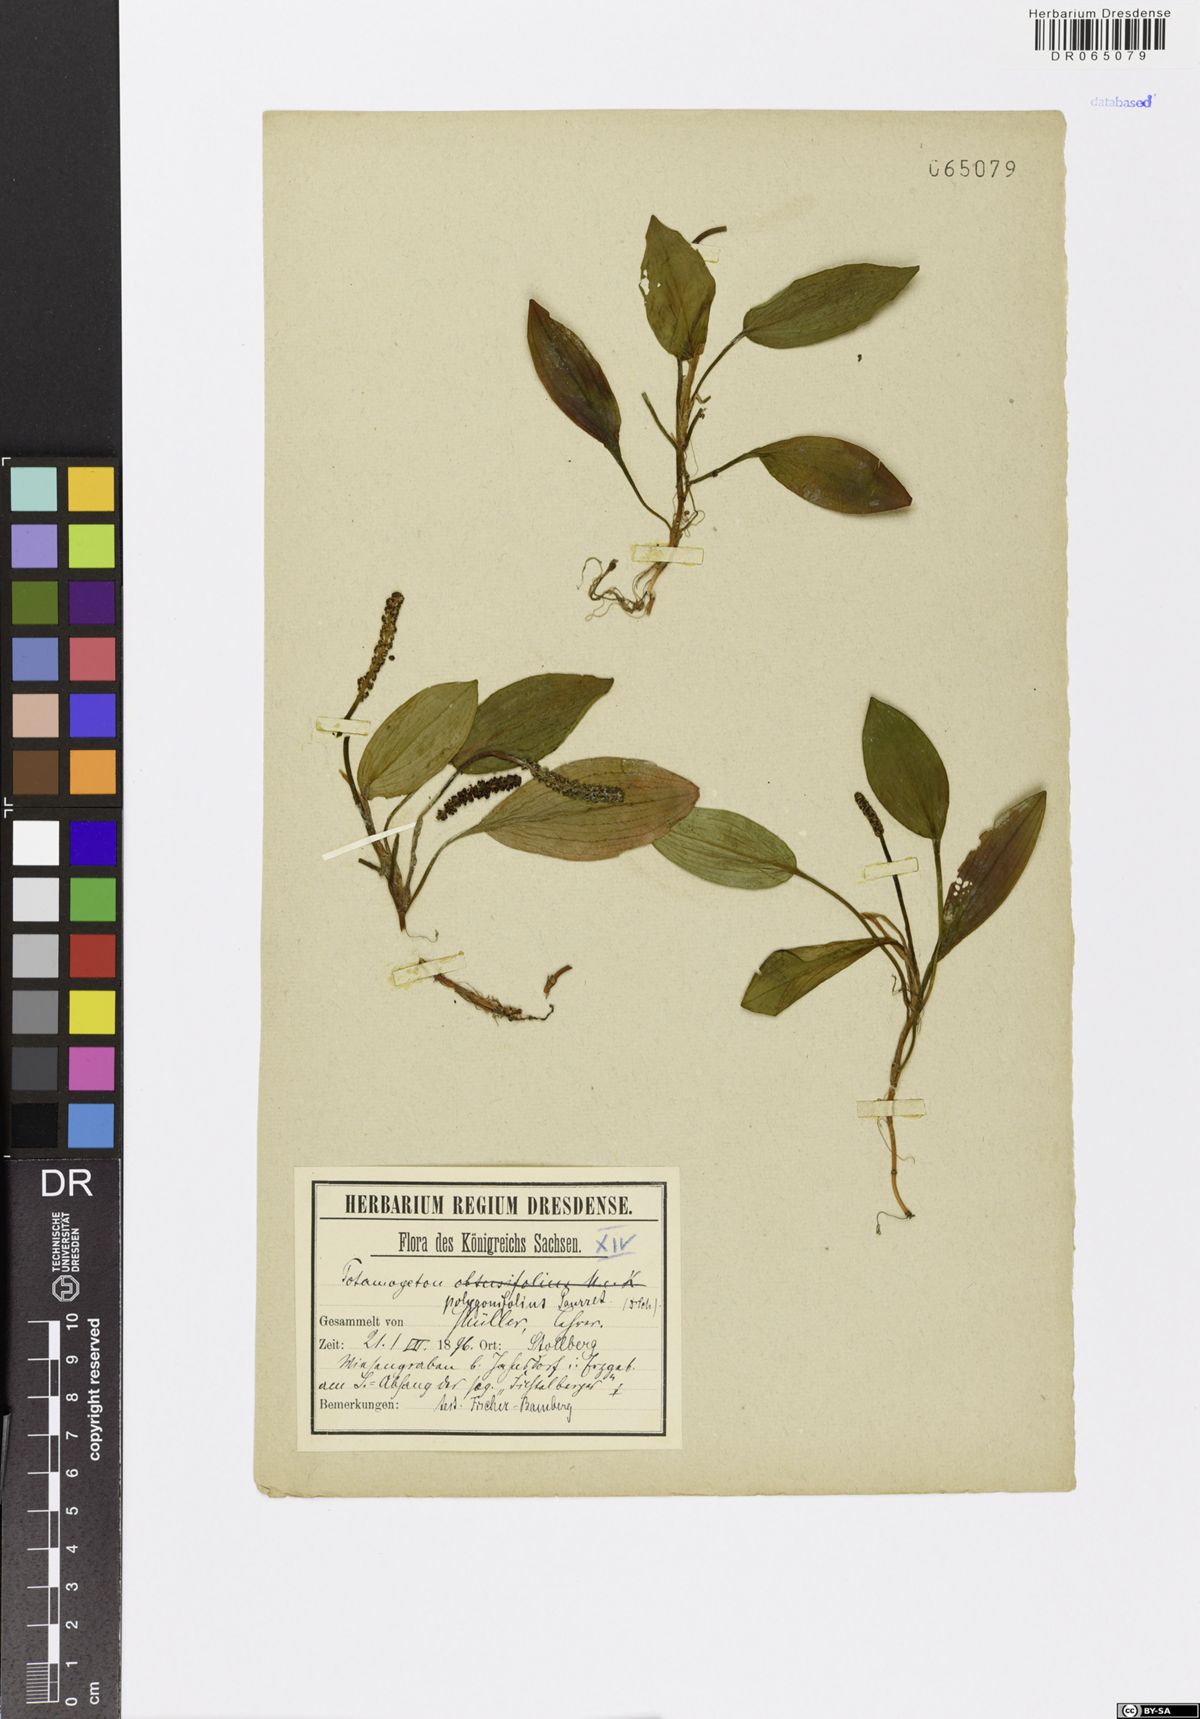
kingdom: Plantae
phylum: Tracheophyta
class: Liliopsida
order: Alismatales
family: Potamogetonaceae
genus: Potamogeton
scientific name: Potamogeton polygonifolius
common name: Bog pondweed
